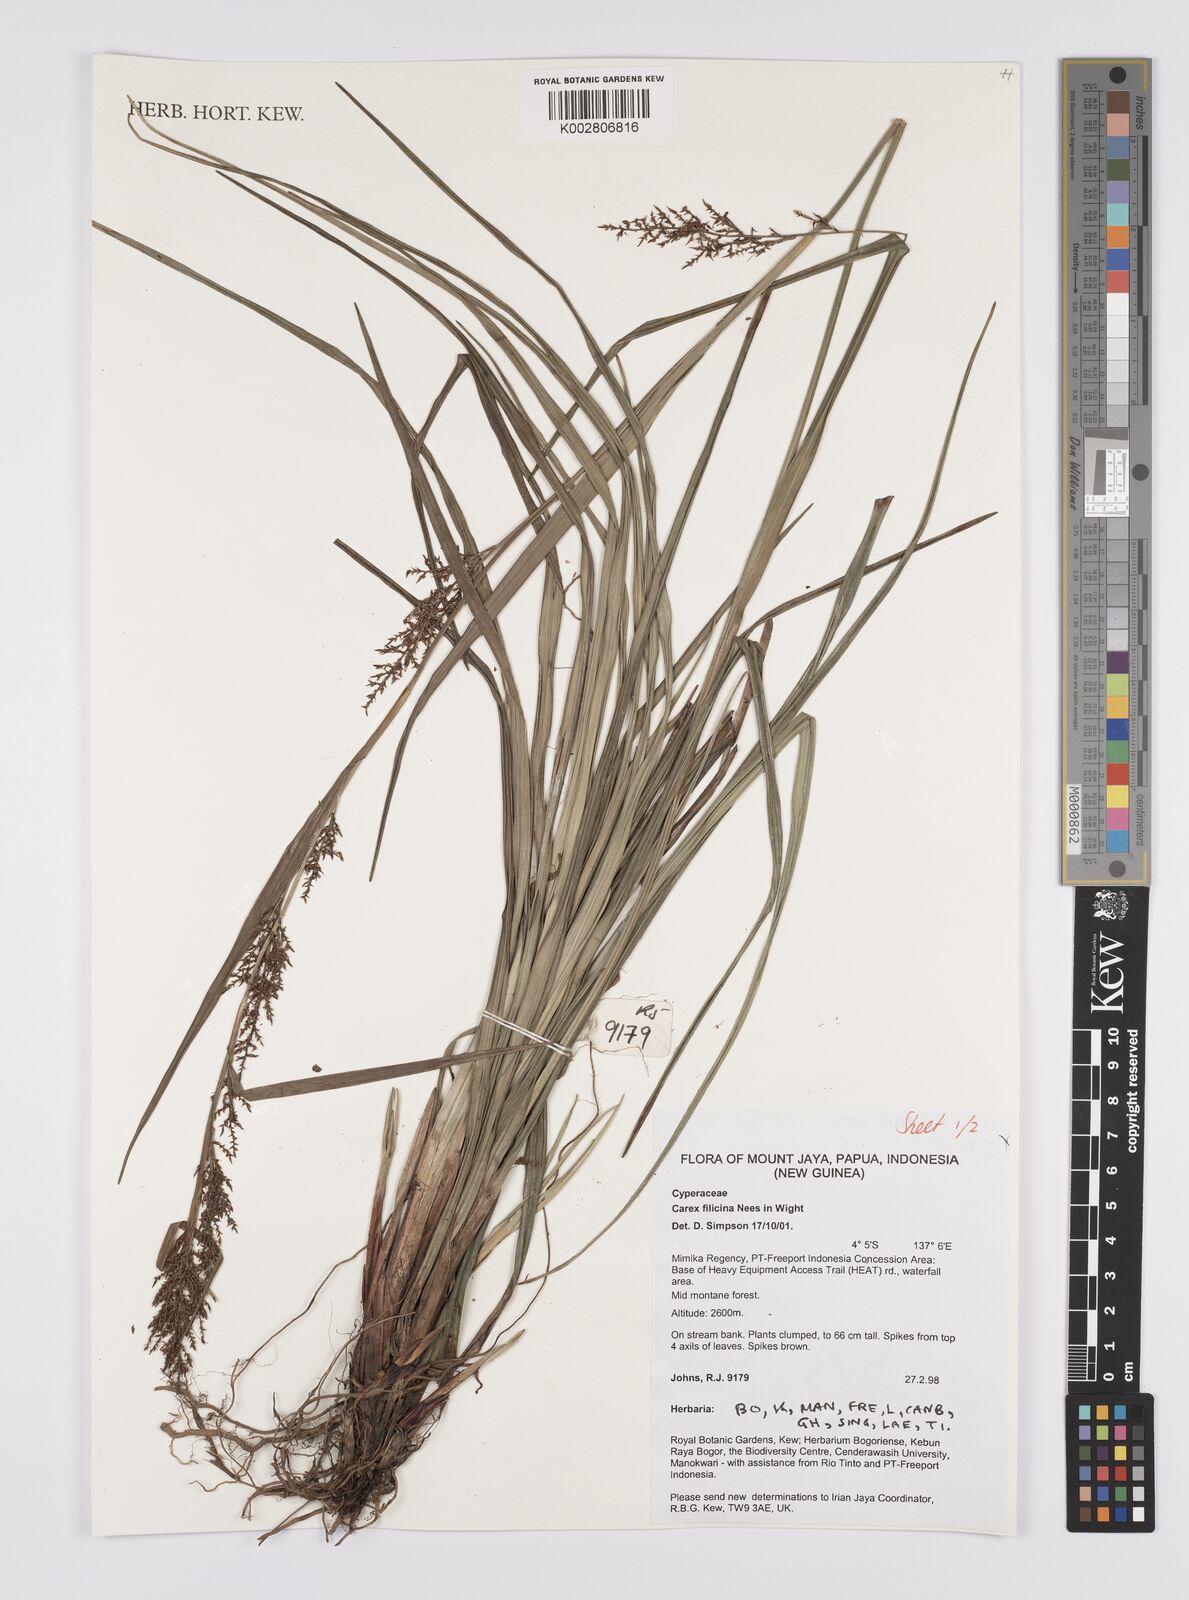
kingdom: Plantae
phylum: Tracheophyta
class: Liliopsida
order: Poales
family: Cyperaceae
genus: Carex
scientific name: Carex filicina
